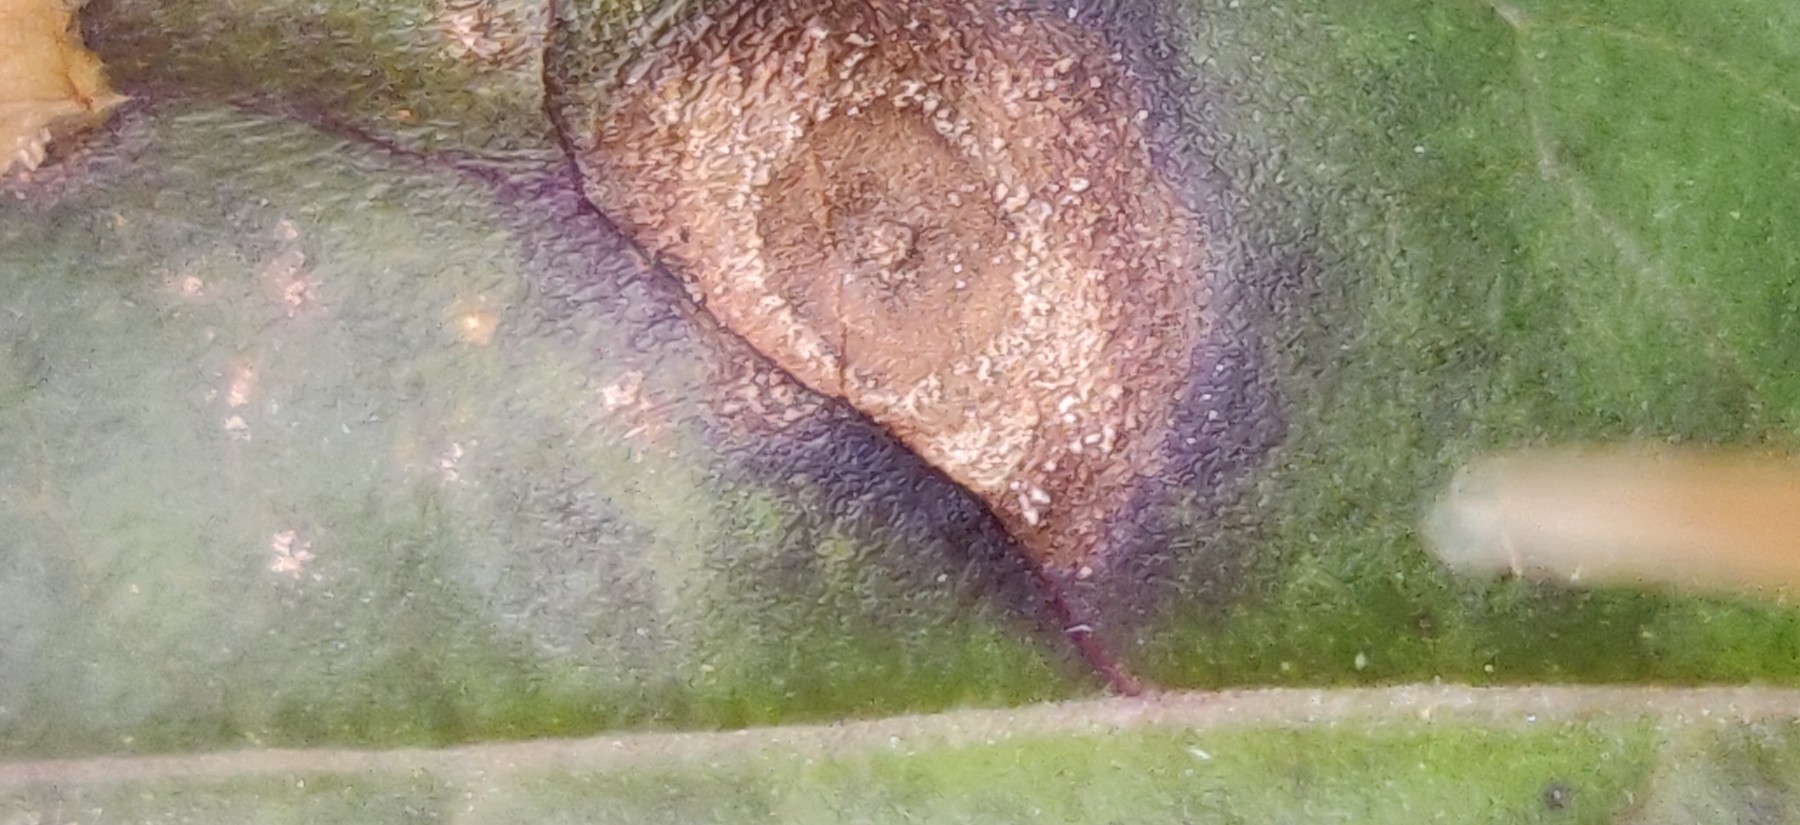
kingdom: Fungi
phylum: Ascomycota
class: Leotiomycetes
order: Helotiales
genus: Thedgonia
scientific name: Thedgonia ligustrina
